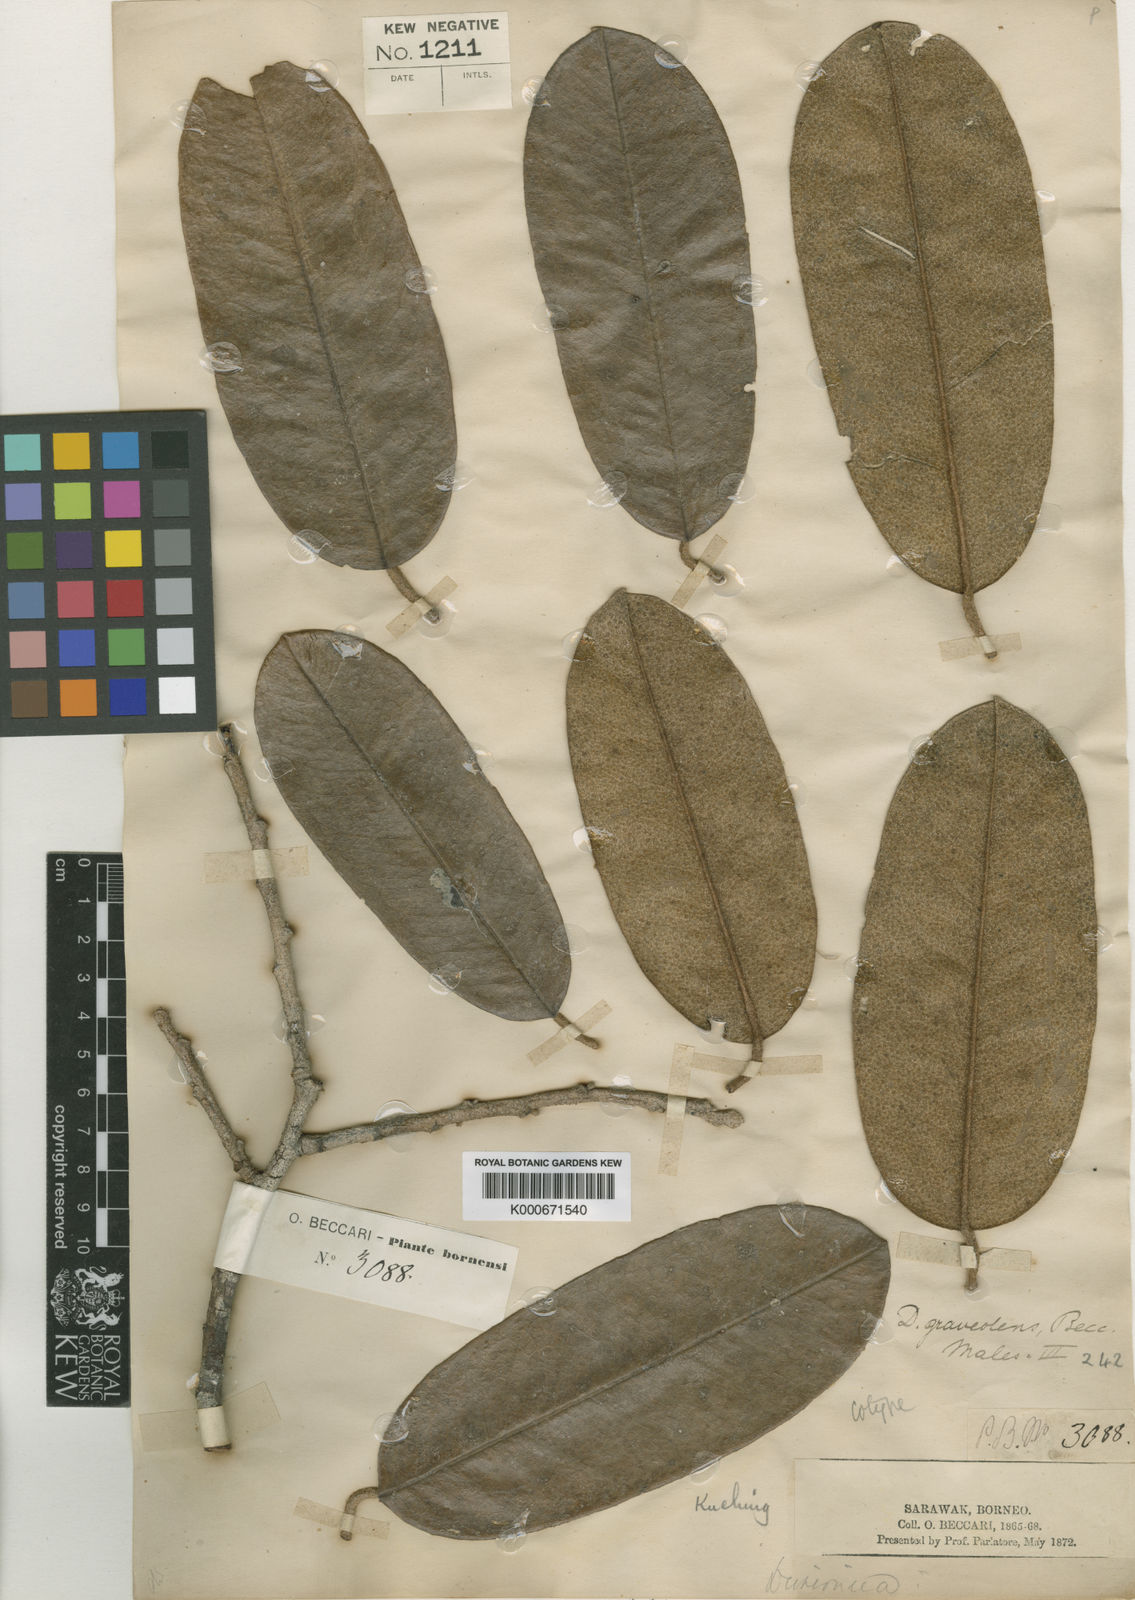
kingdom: Plantae
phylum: Tracheophyta
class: Magnoliopsida
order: Malvales
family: Malvaceae
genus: Durio
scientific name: Durio graveolens
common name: Durian
